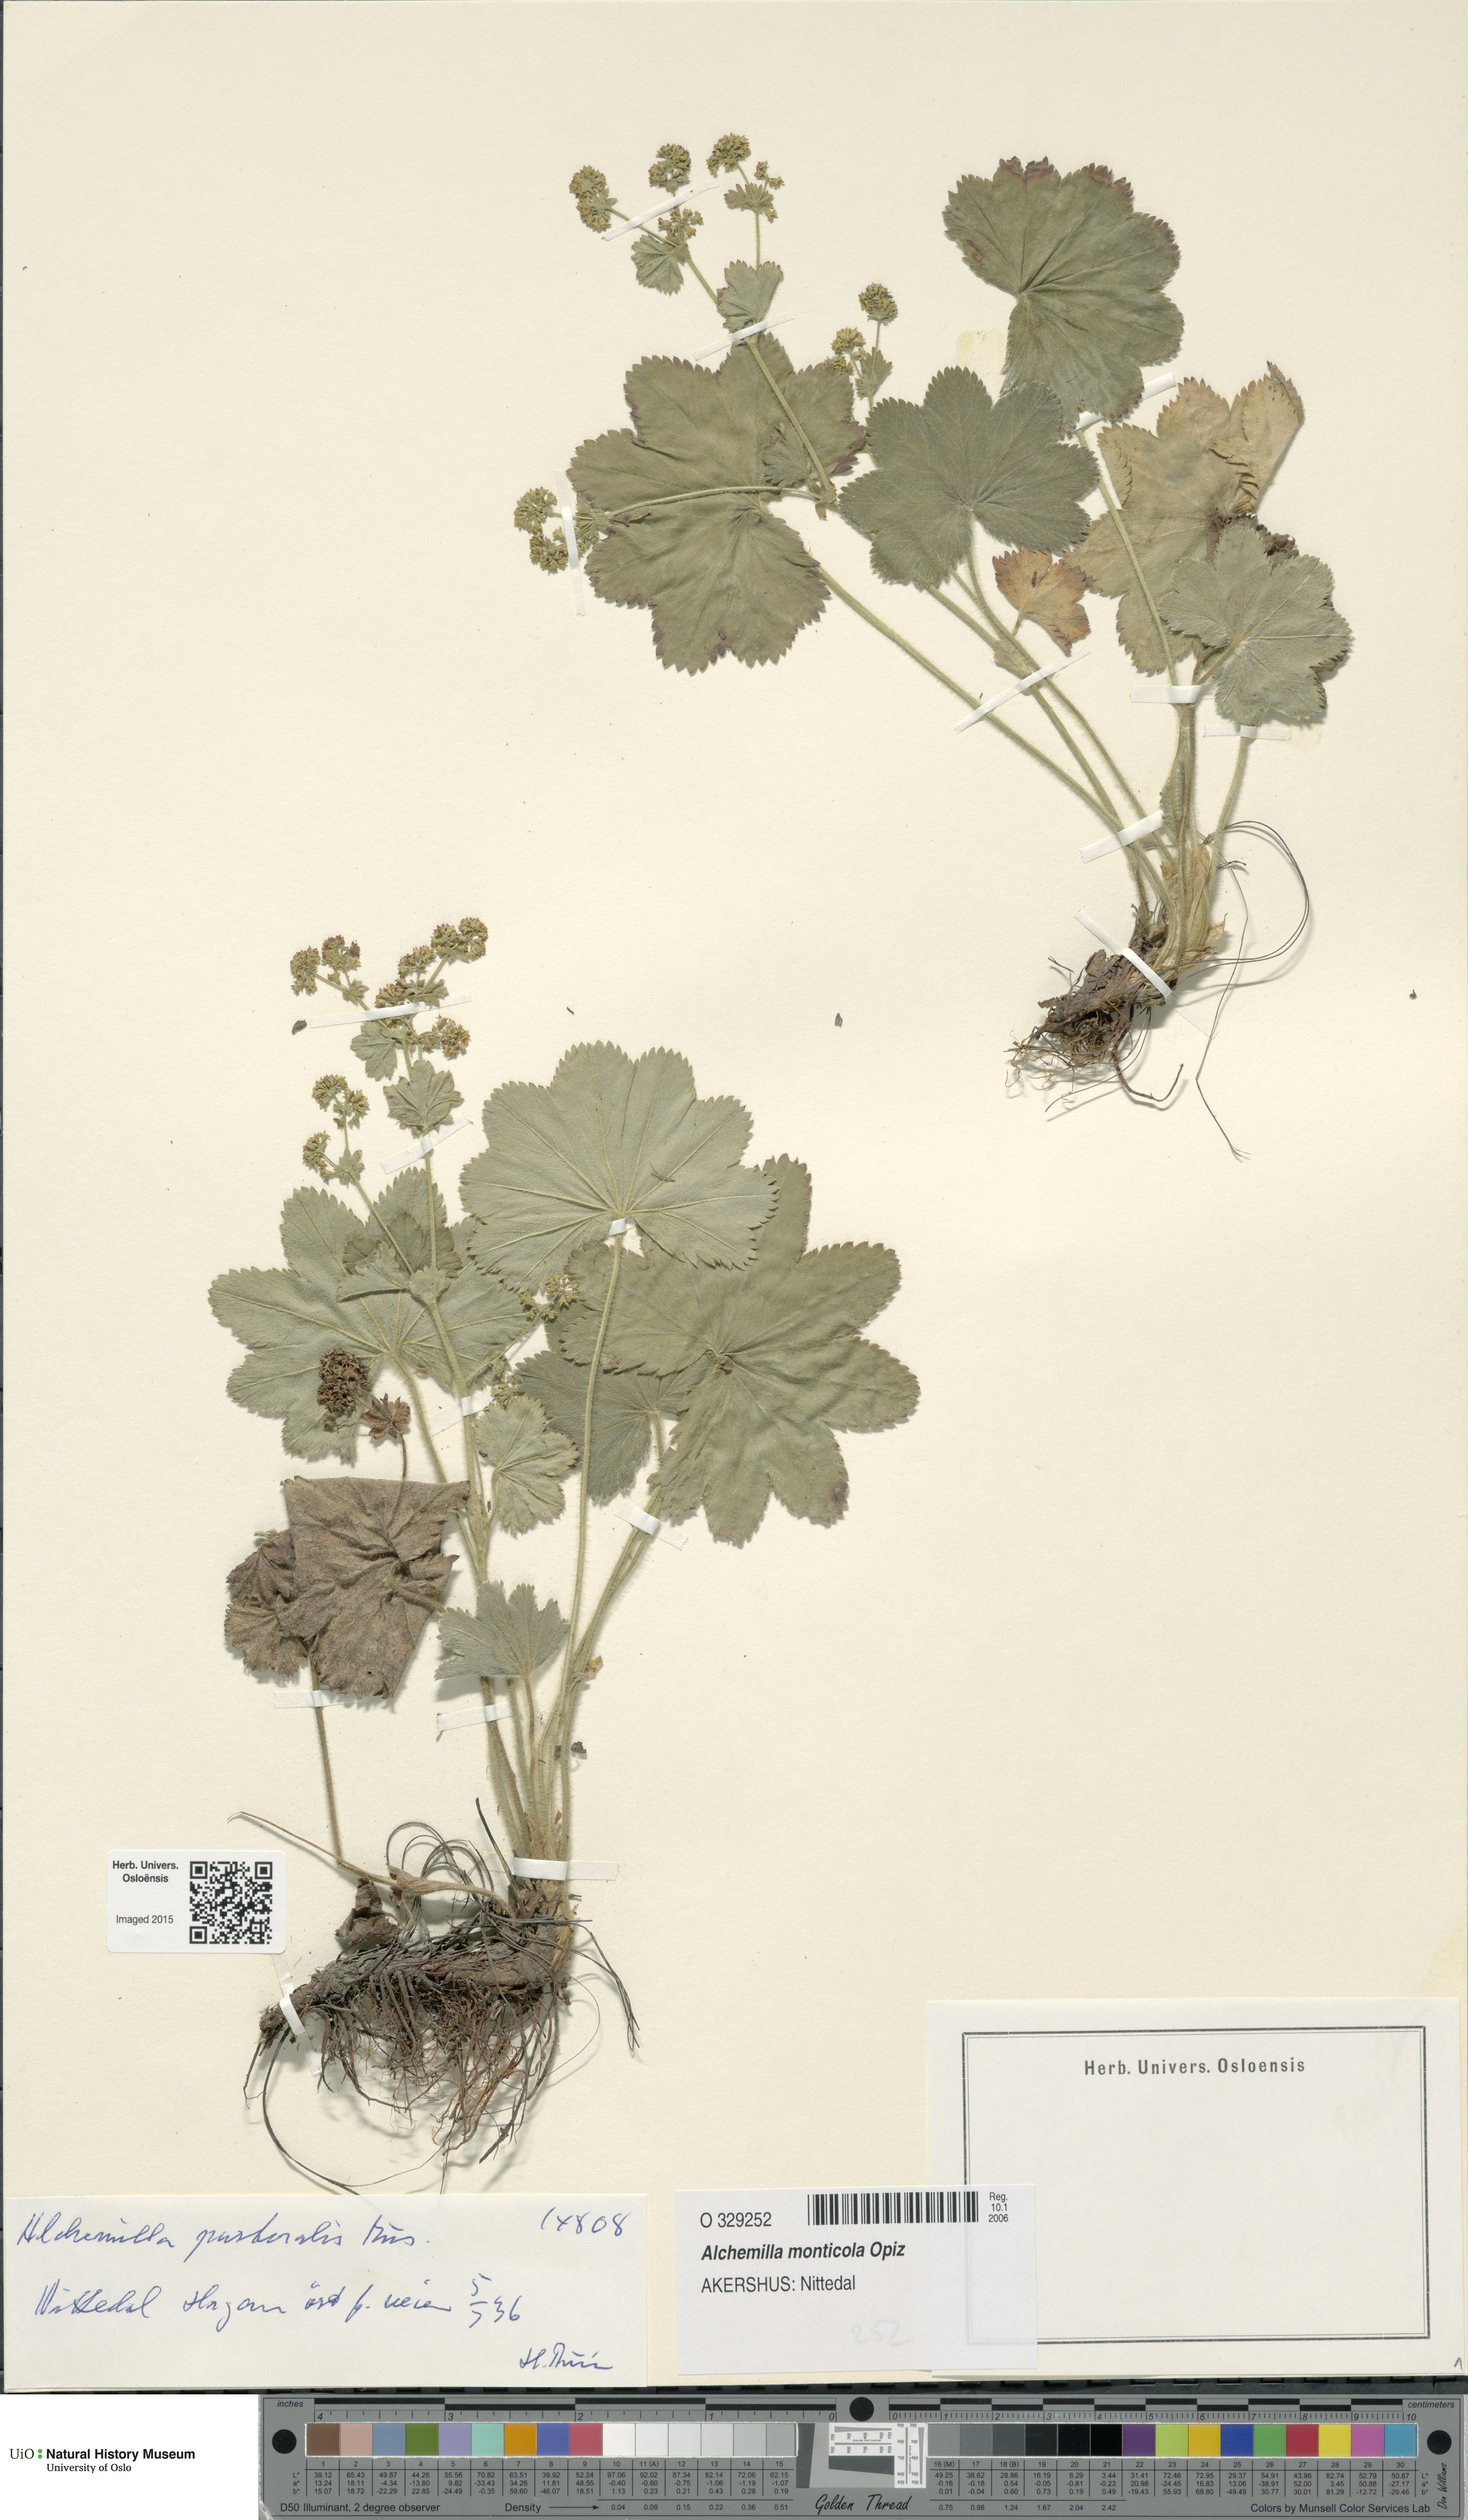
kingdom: Plantae
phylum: Tracheophyta
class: Magnoliopsida
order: Rosales
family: Rosaceae
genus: Alchemilla
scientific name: Alchemilla monticola
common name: Hairy lady's mantle
